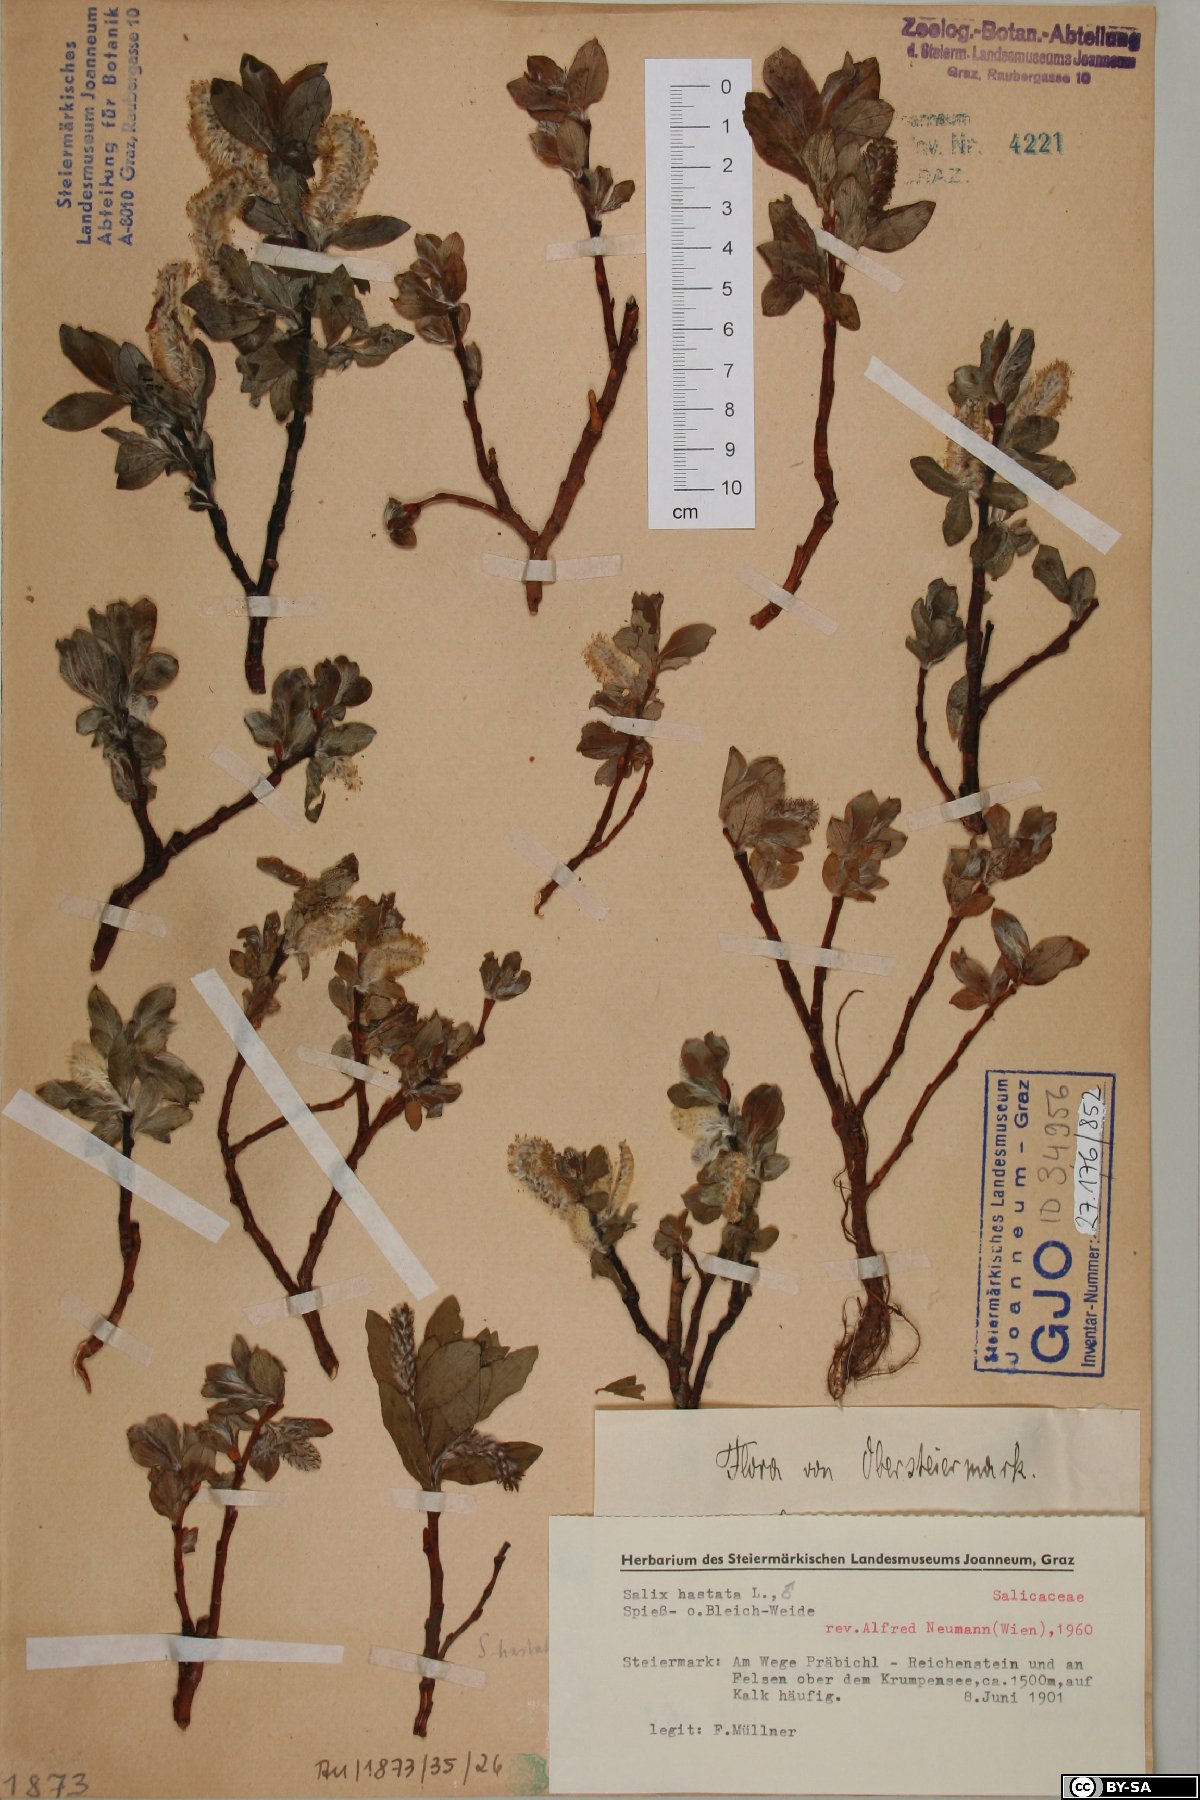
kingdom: Plantae
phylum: Tracheophyta
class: Magnoliopsida
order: Malpighiales
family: Salicaceae
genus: Salix
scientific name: Salix hastata
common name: Halberd willow
